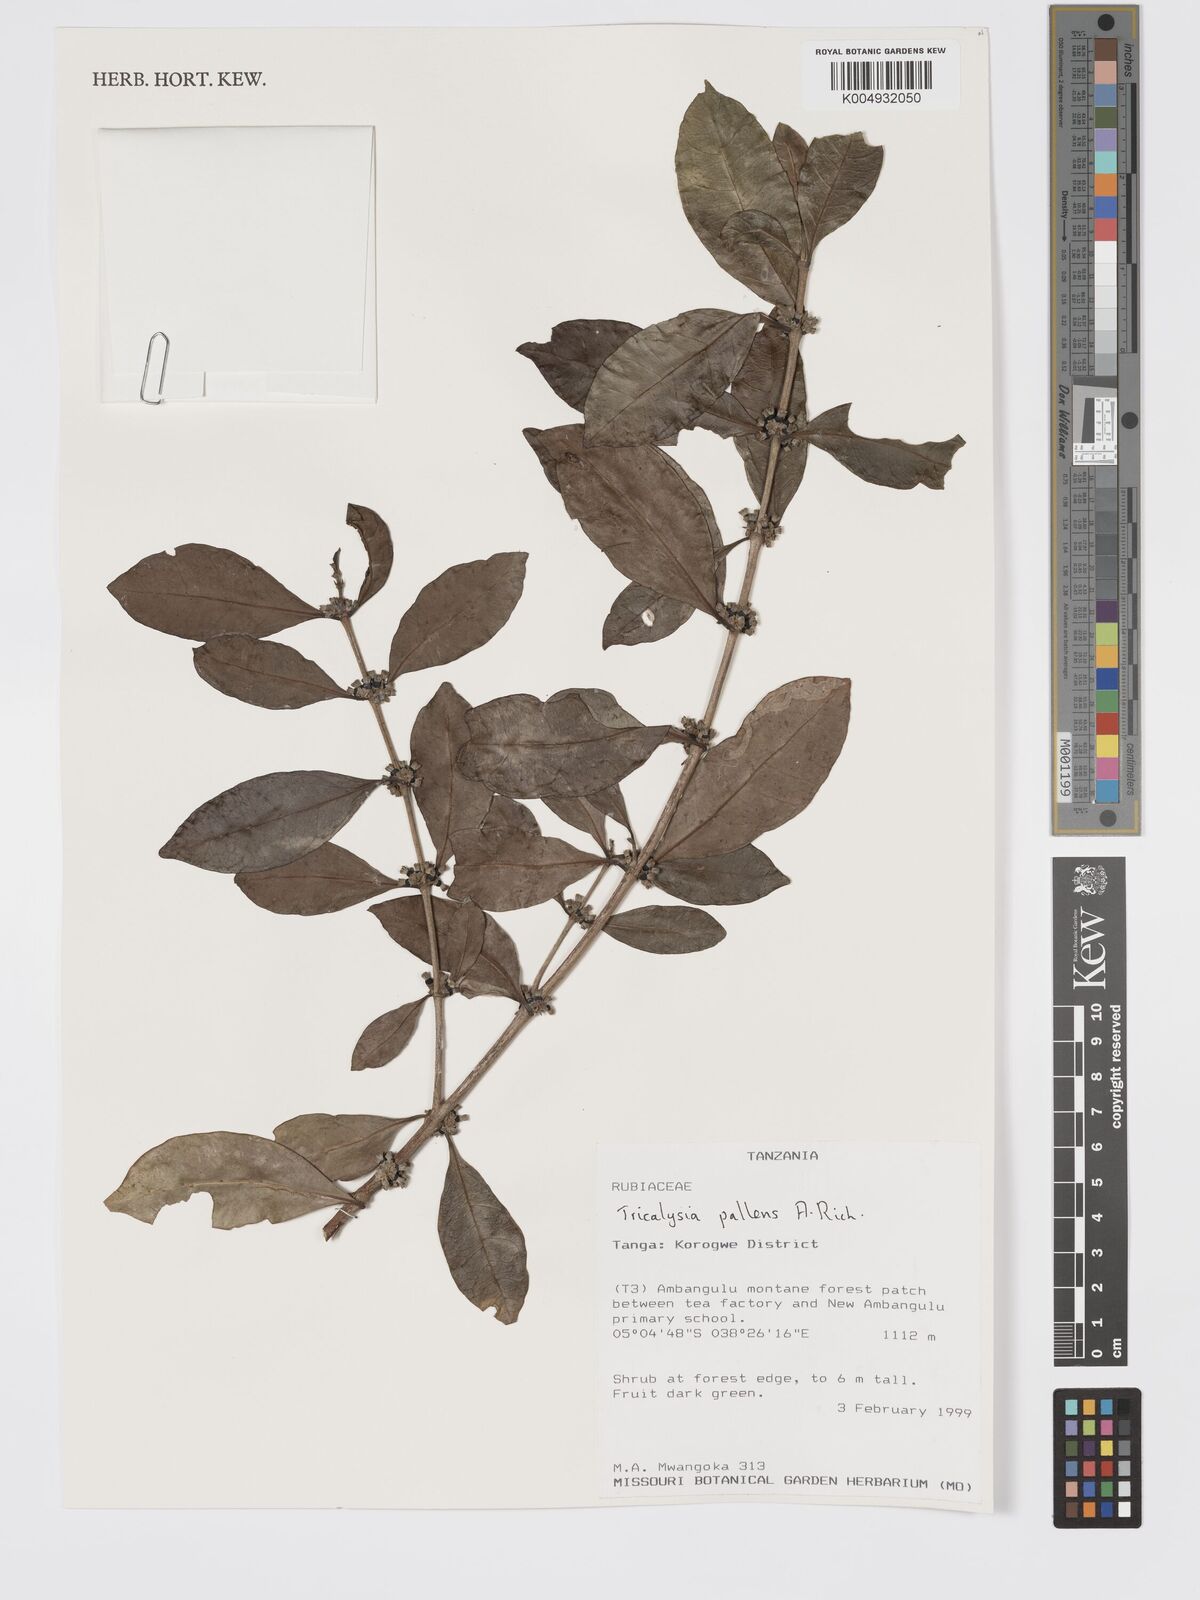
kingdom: Plantae
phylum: Tracheophyta
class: Magnoliopsida
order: Gentianales
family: Rubiaceae
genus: Tricalysia
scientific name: Tricalysia pallens
